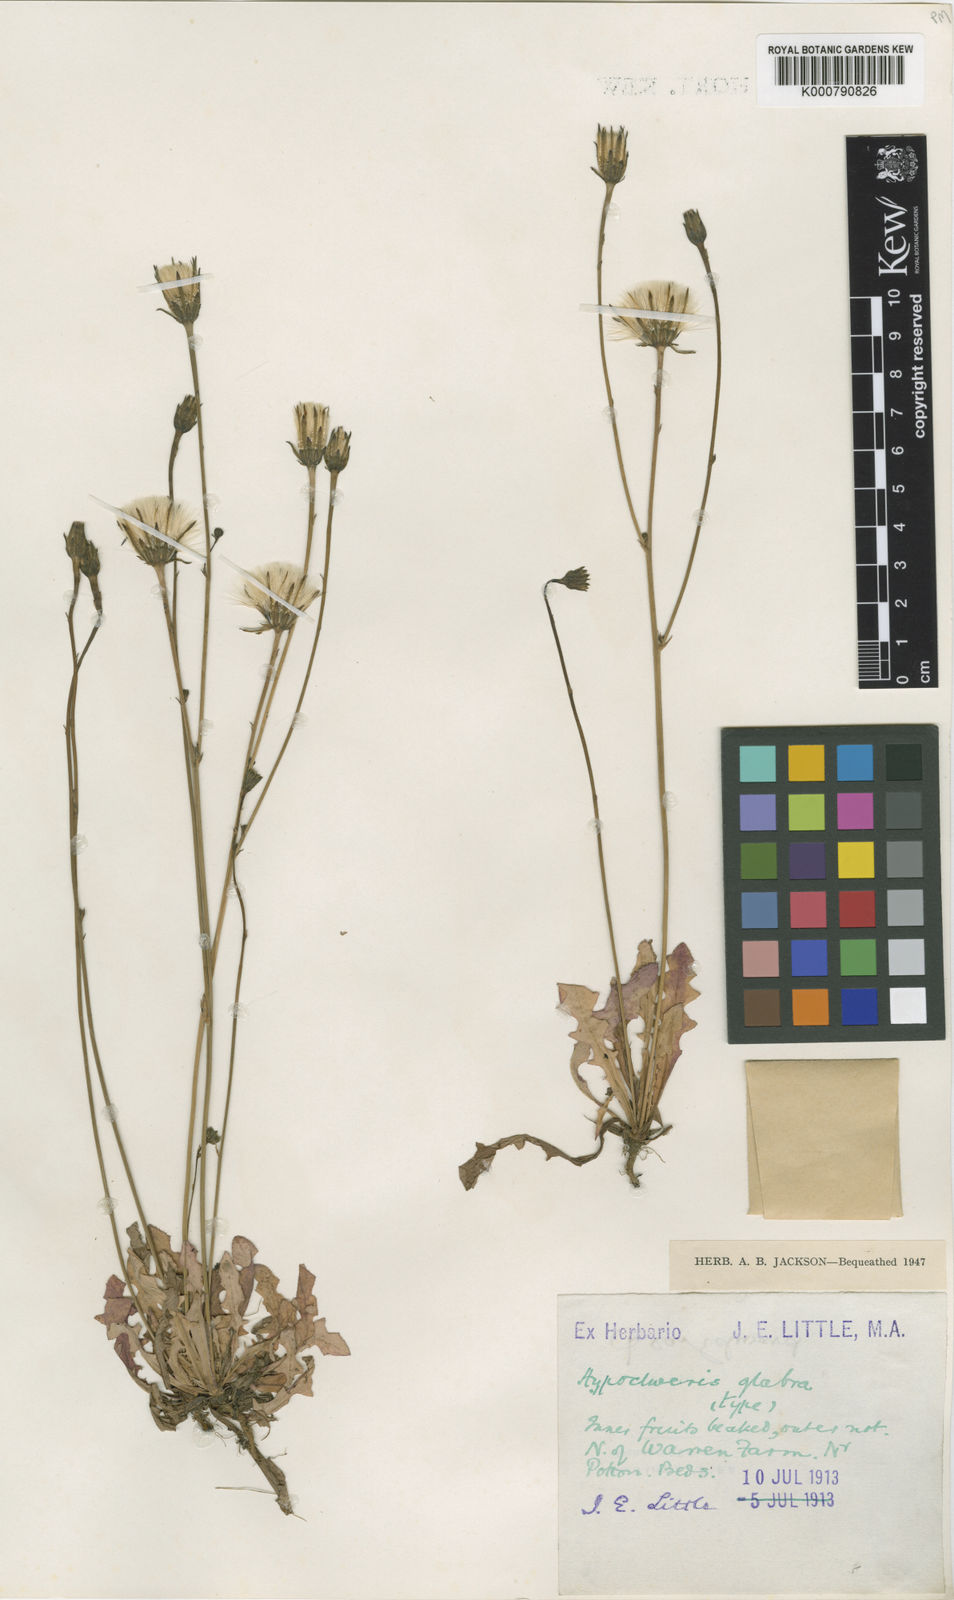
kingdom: Plantae
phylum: Tracheophyta
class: Magnoliopsida
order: Asterales
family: Asteraceae
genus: Hypochaeris
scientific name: Hypochaeris glabra
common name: Smooth catsear
